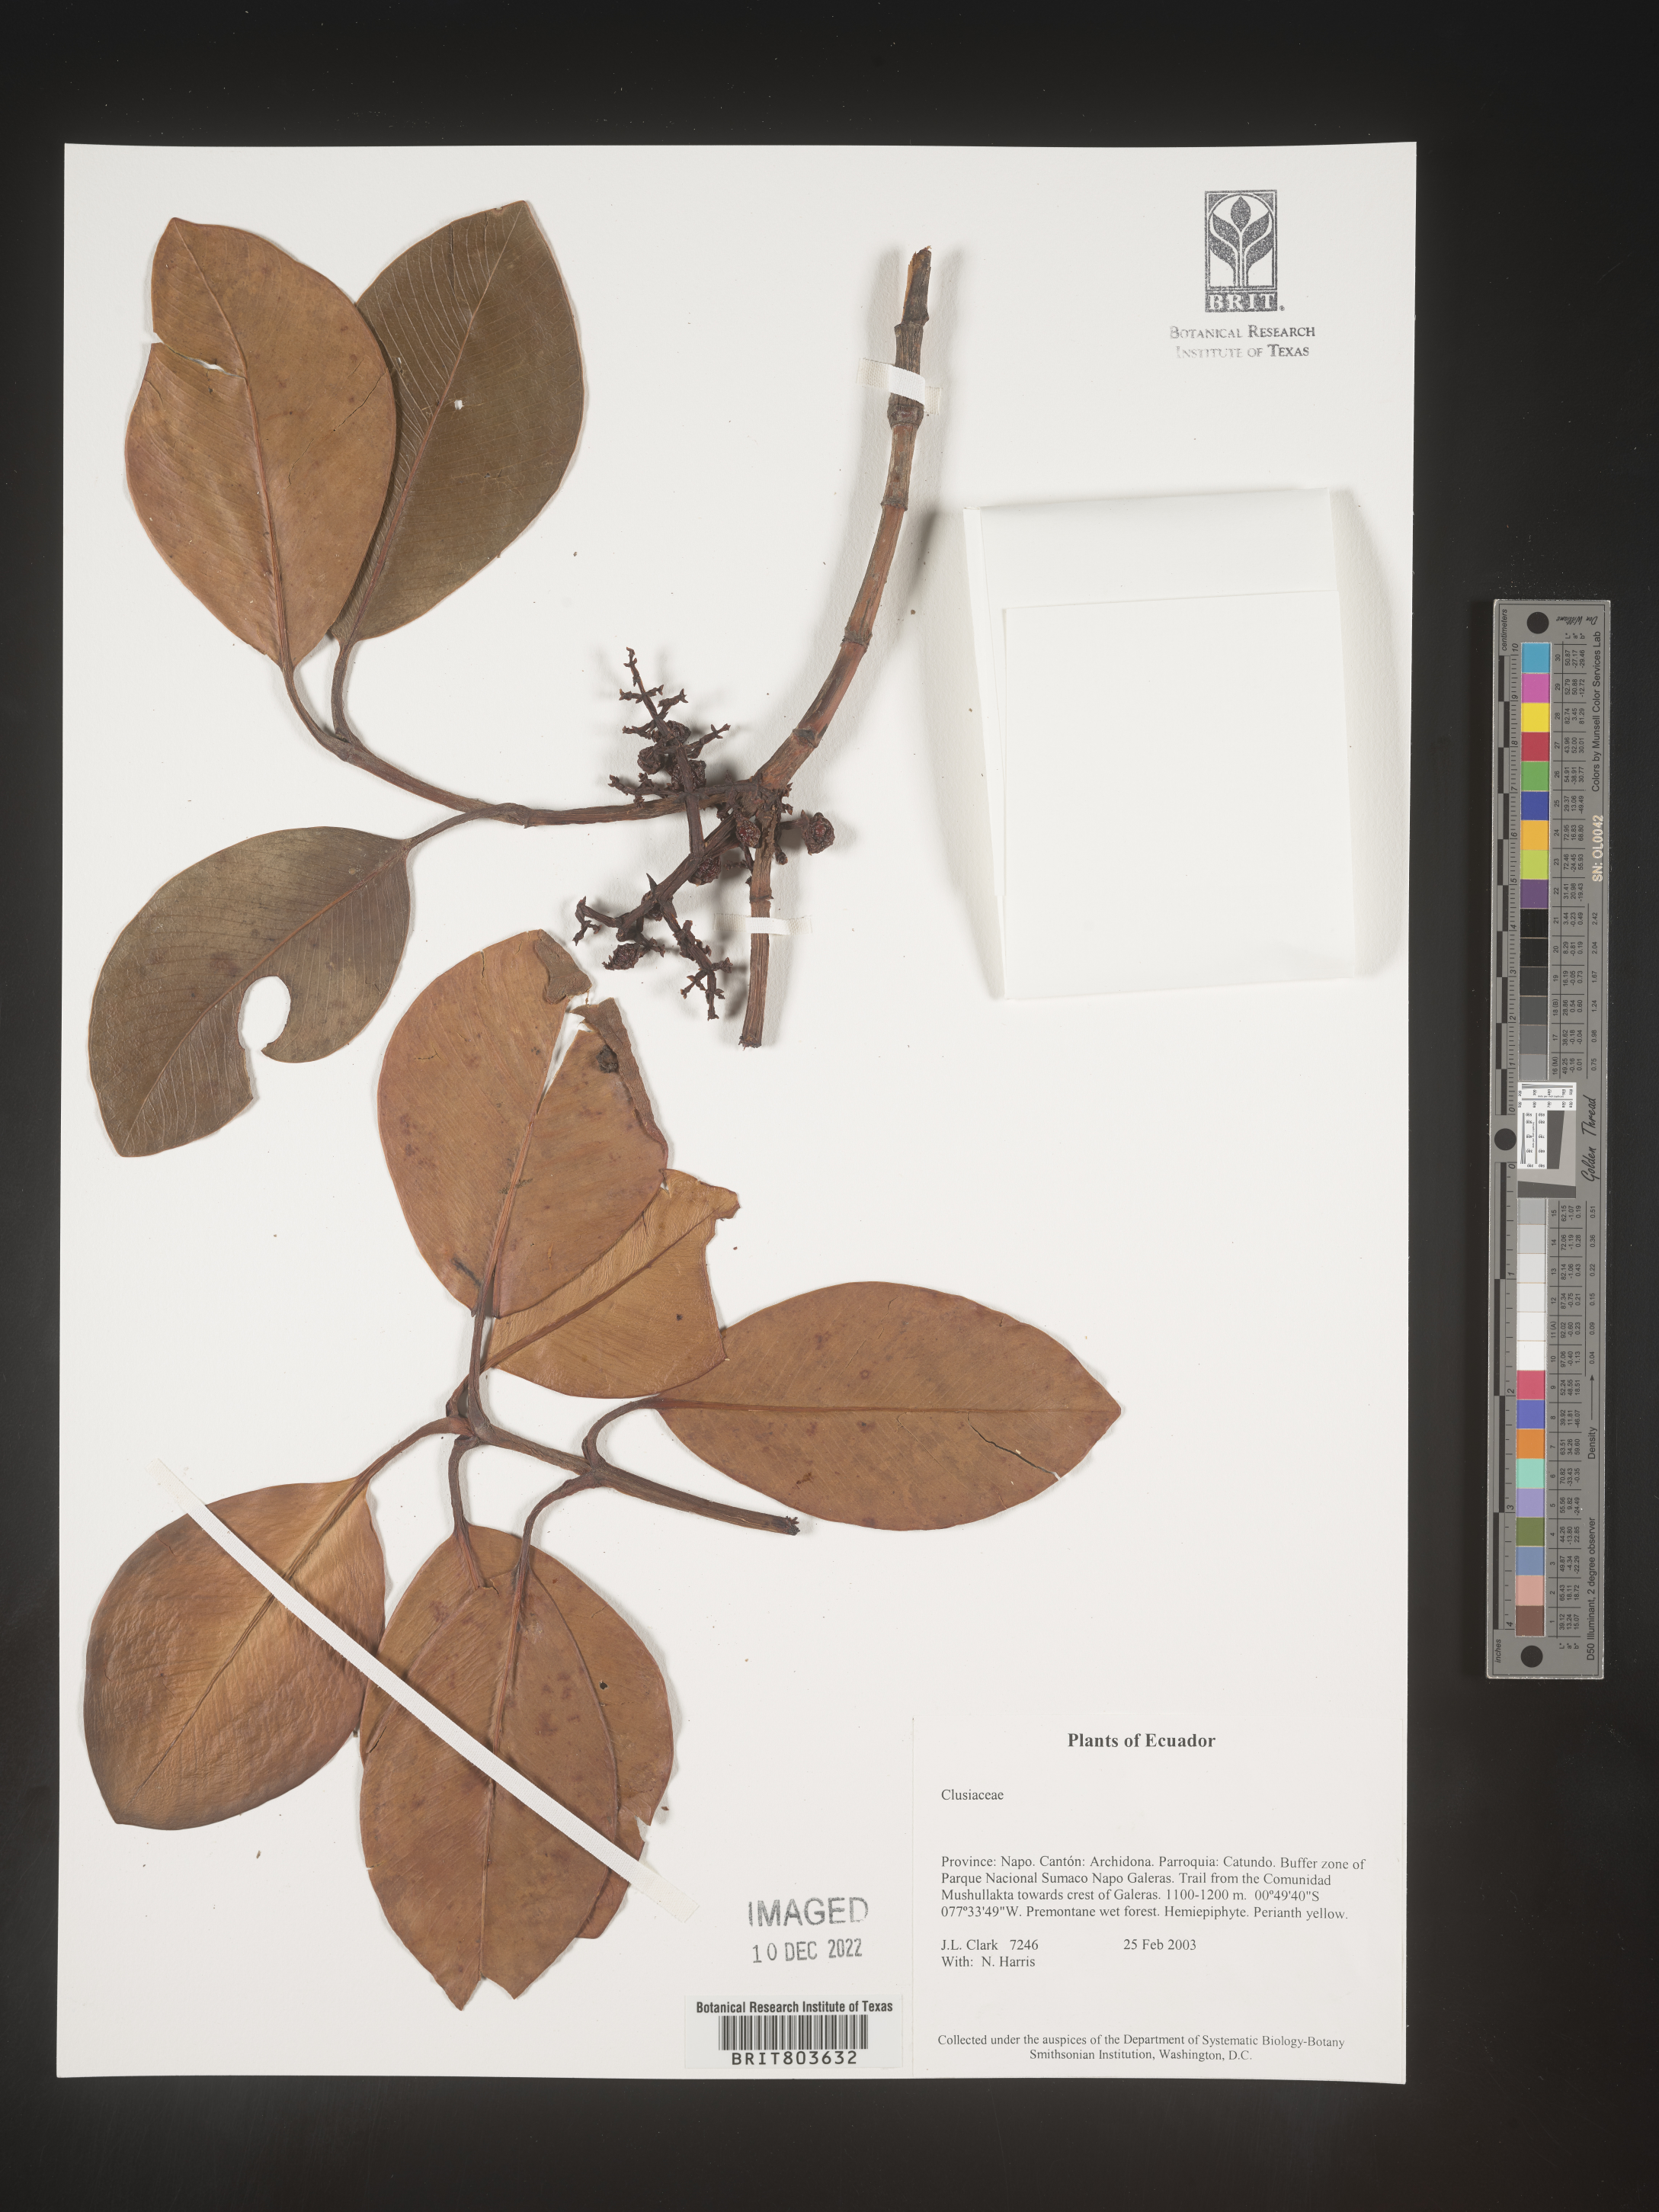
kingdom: Plantae
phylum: Tracheophyta
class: Magnoliopsida
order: Malpighiales
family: Clusiaceae
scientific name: Clusiaceae
